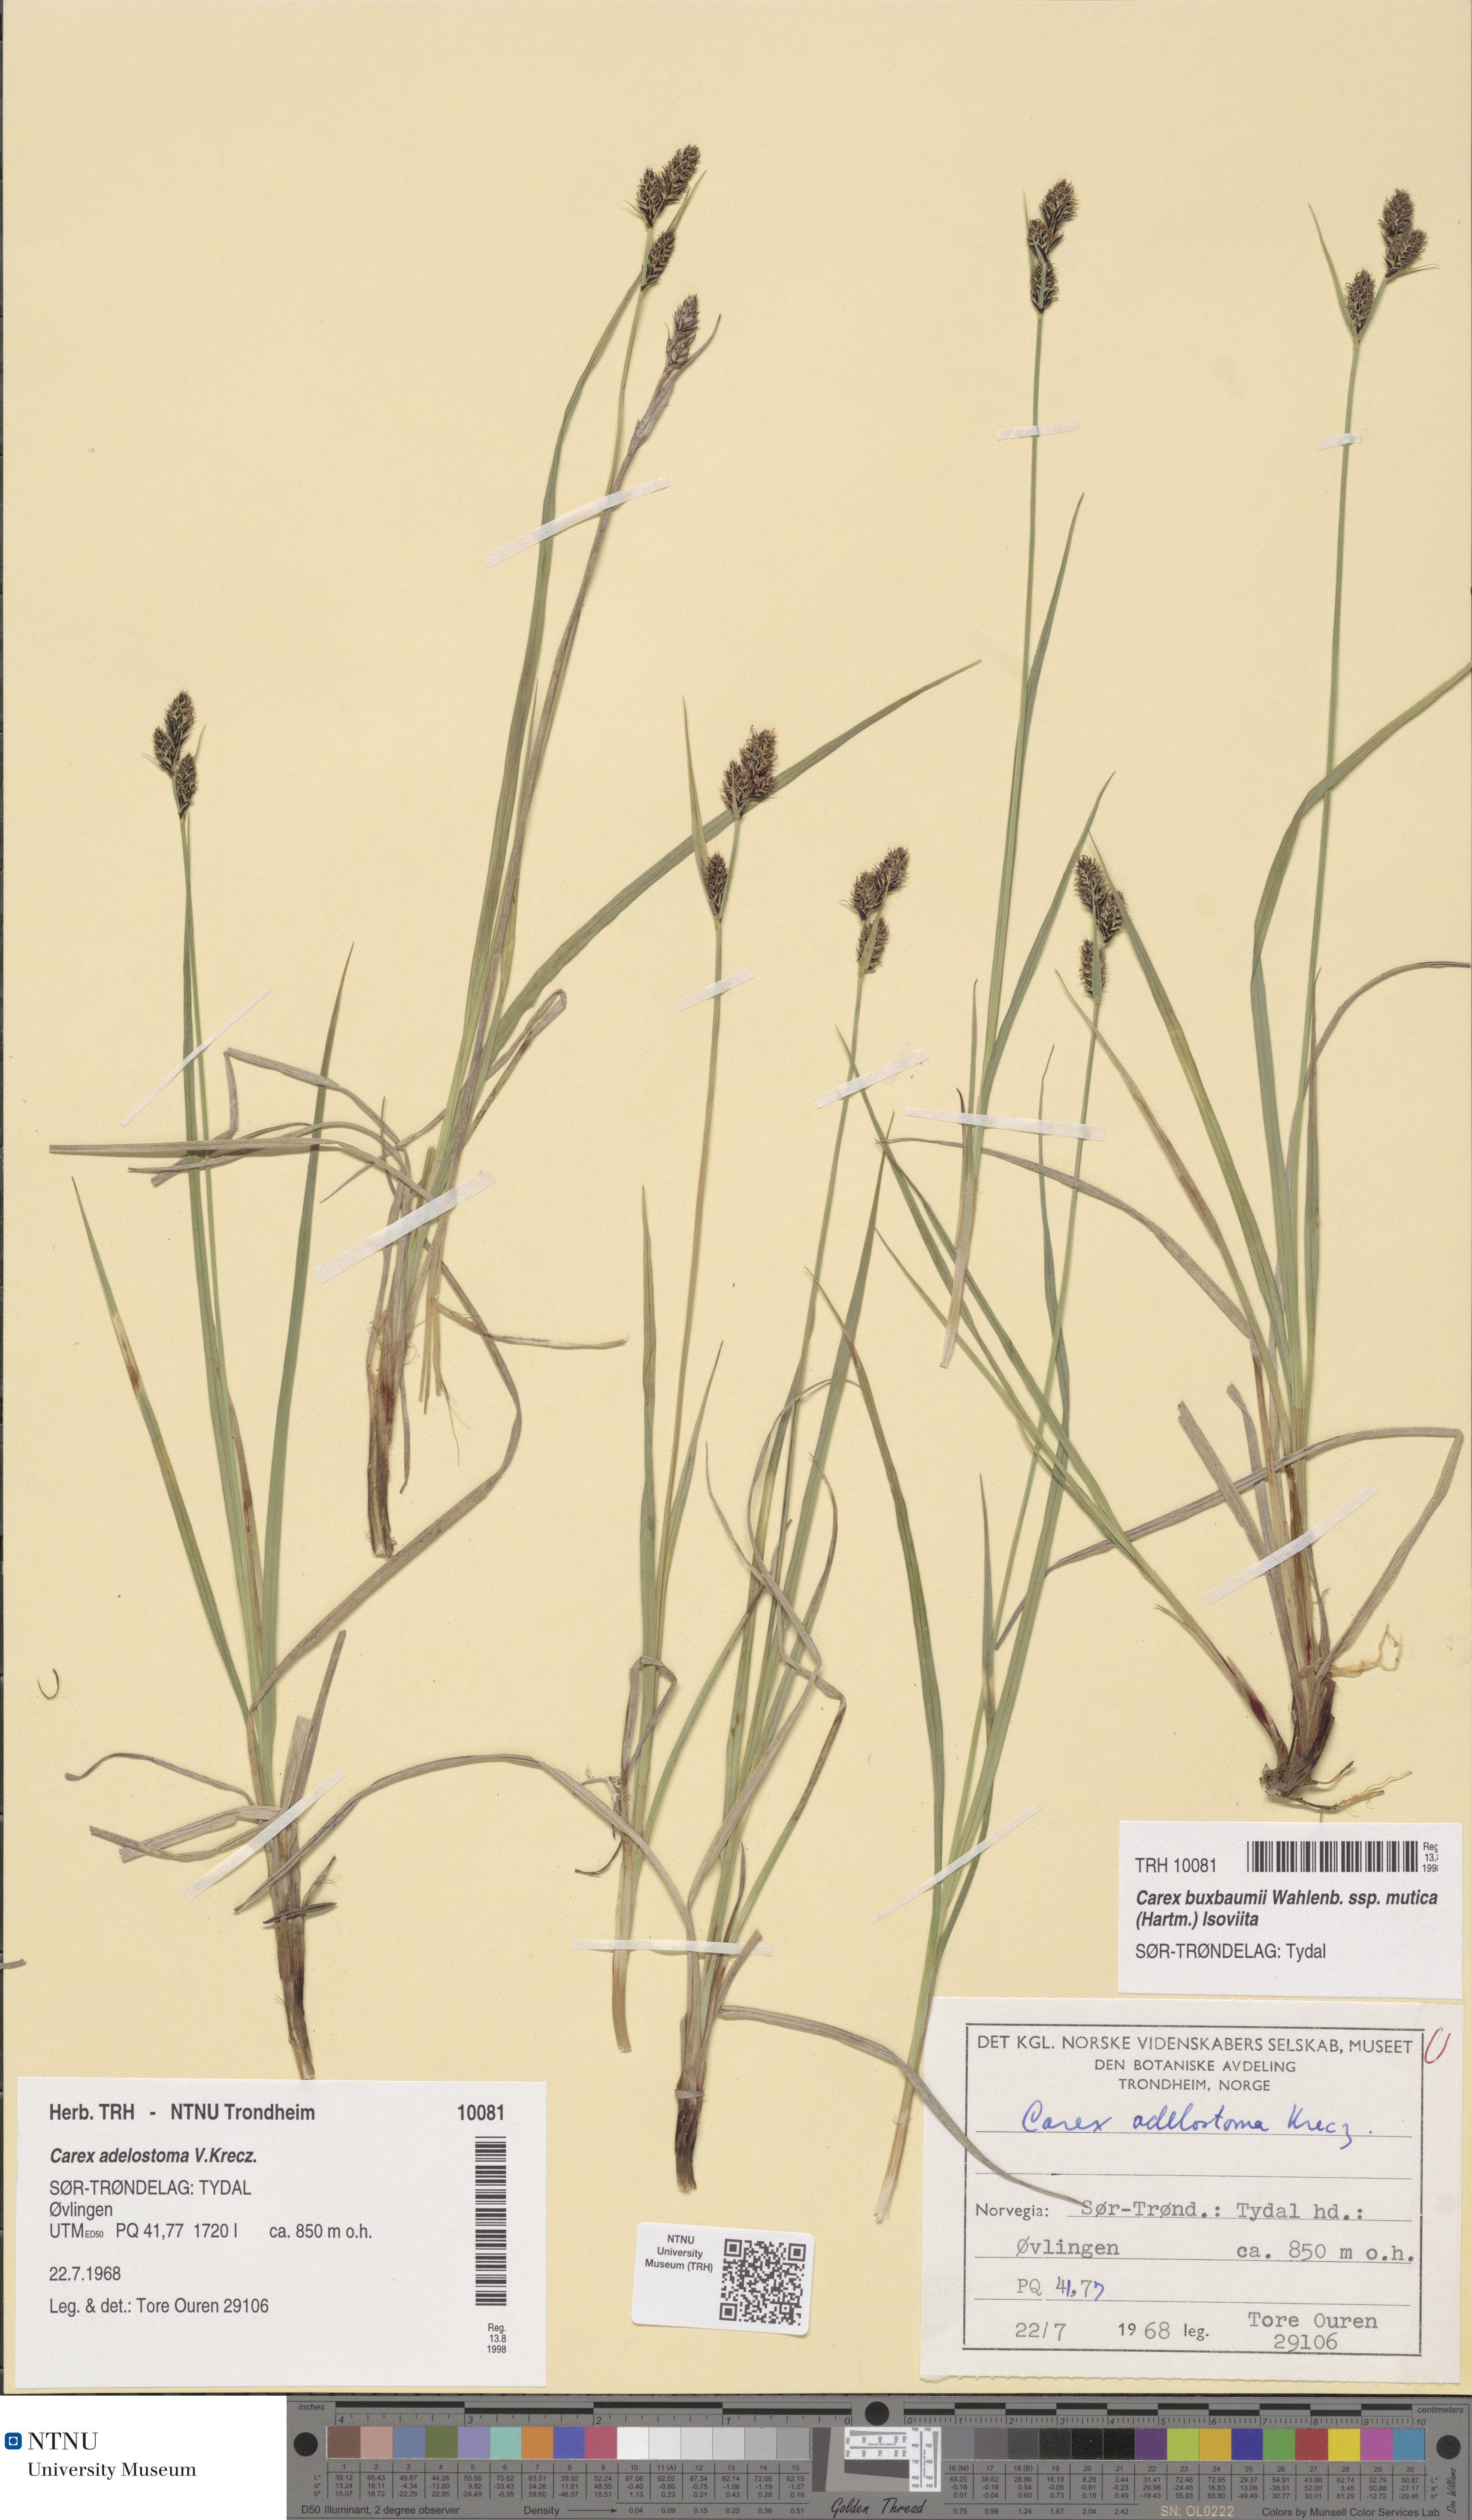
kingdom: Plantae
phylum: Tracheophyta
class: Liliopsida
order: Poales
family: Cyperaceae
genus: Carex
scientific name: Carex adelostoma
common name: Circumpolar sedge
